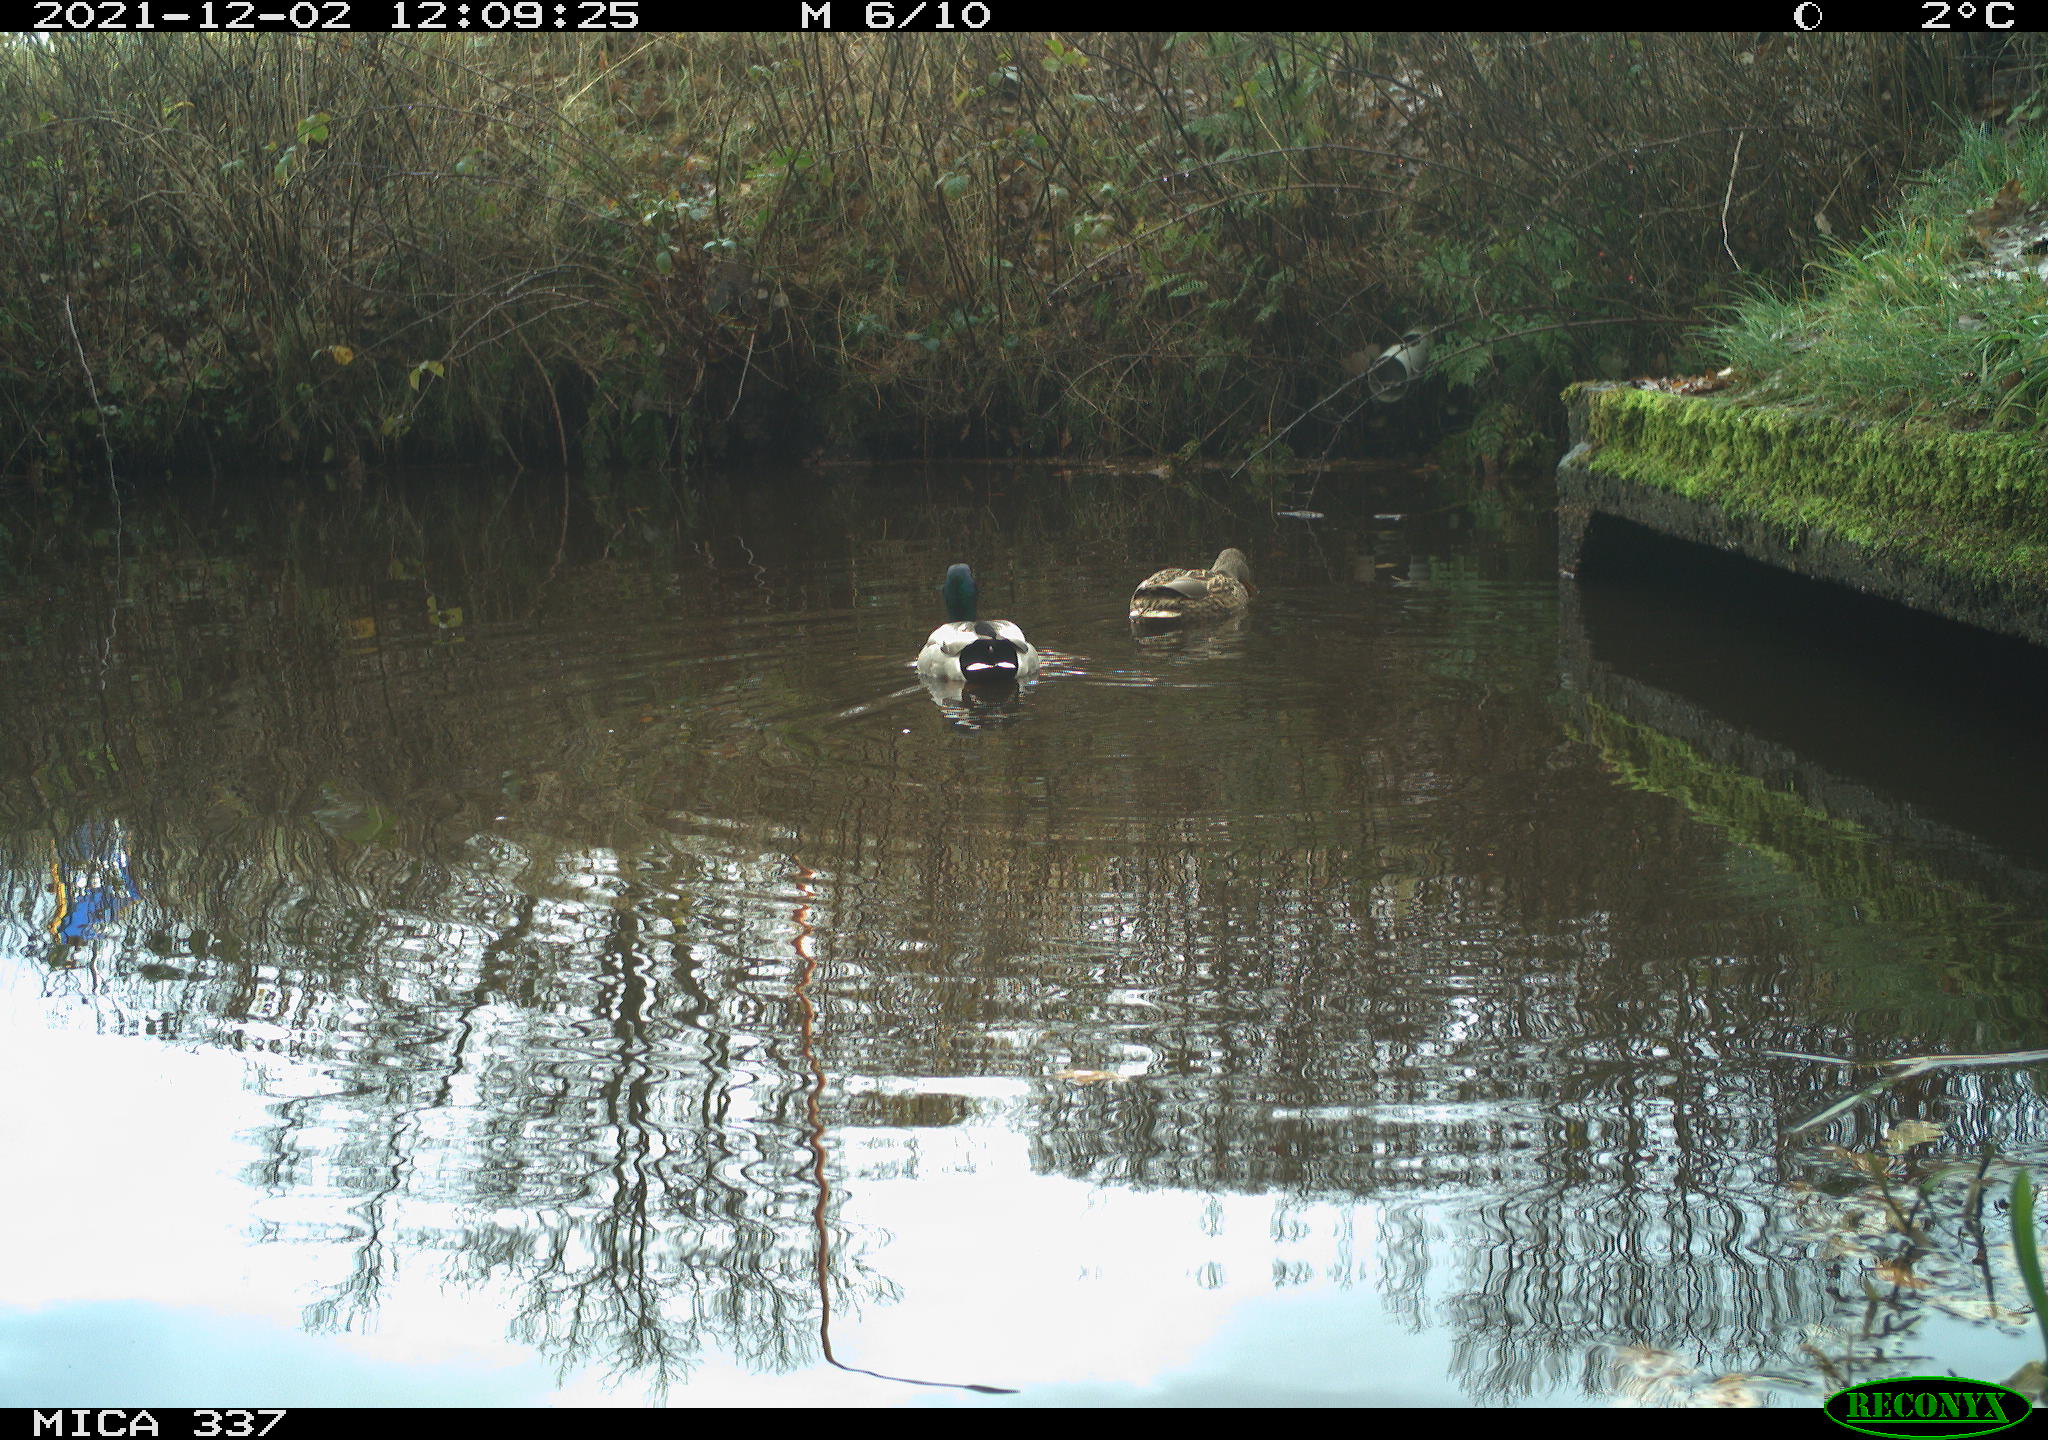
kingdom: Animalia
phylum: Chordata
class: Aves
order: Anseriformes
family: Anatidae
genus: Anas
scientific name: Anas platyrhynchos
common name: Mallard
